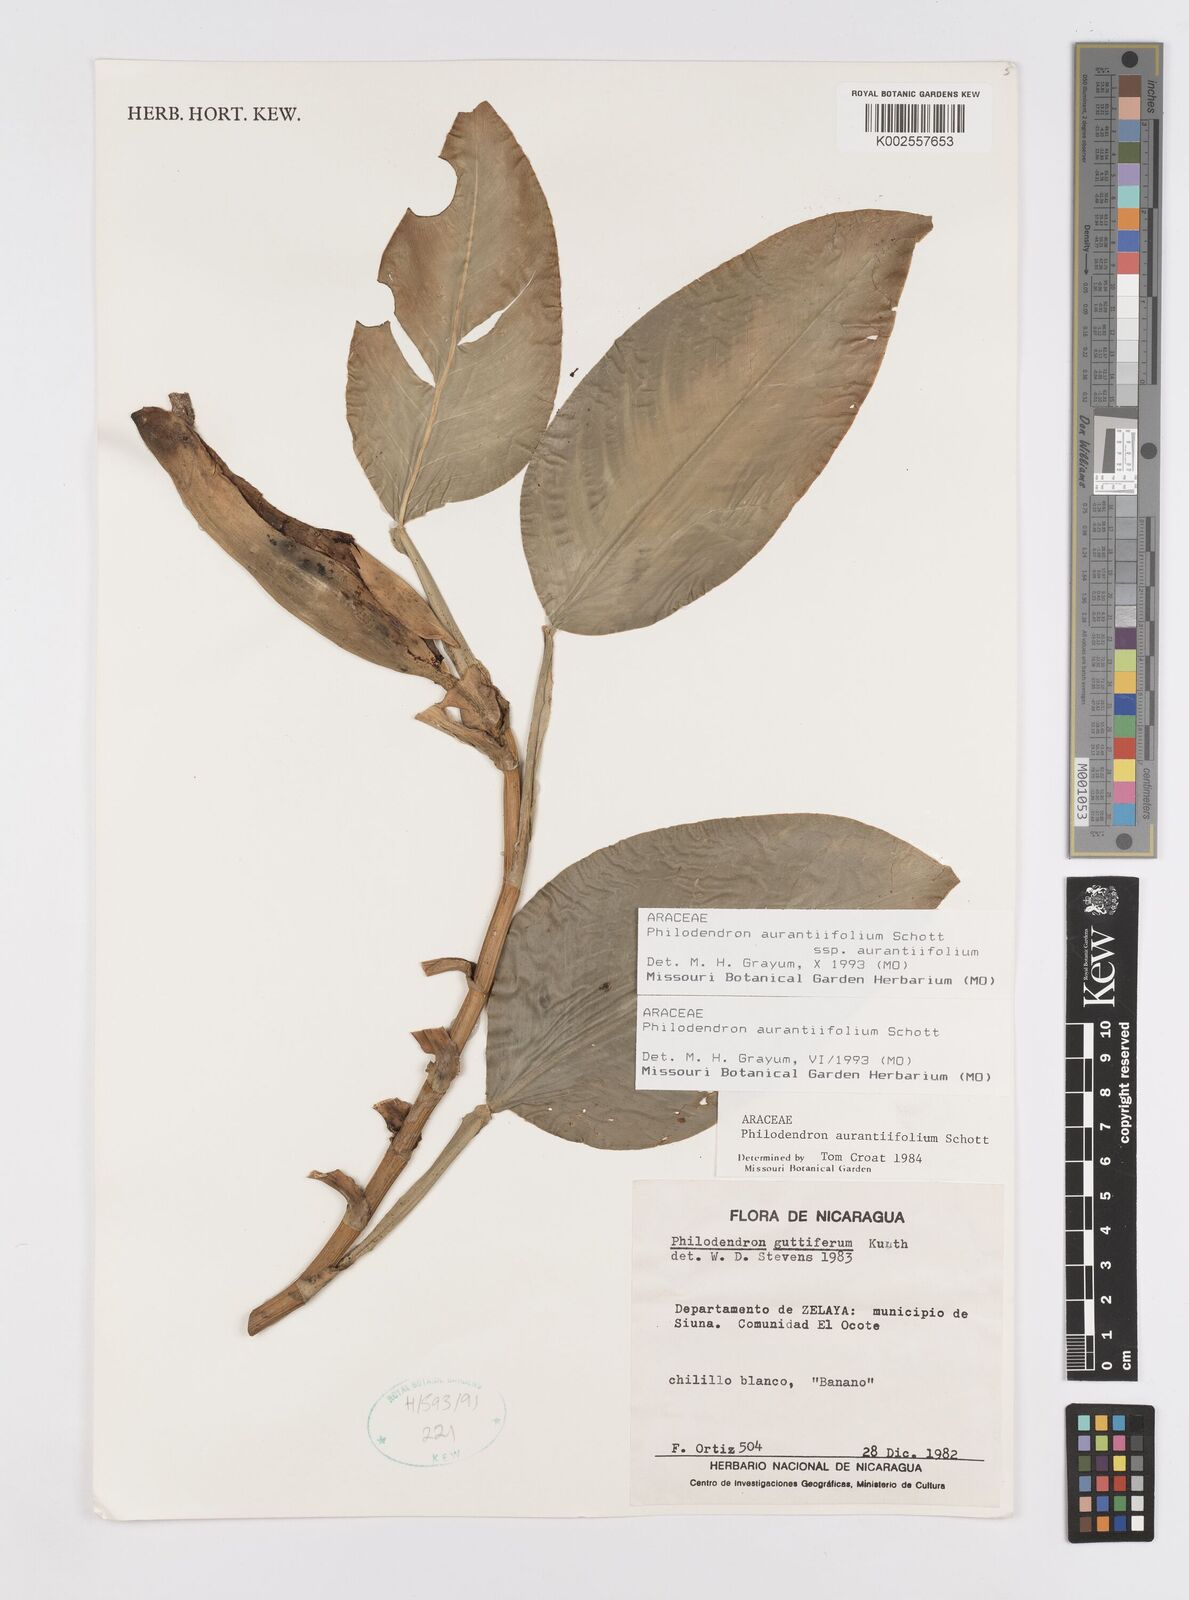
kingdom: Plantae
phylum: Tracheophyta
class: Liliopsida
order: Alismatales
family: Araceae
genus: Philodendron
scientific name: Philodendron aurantiifolium
